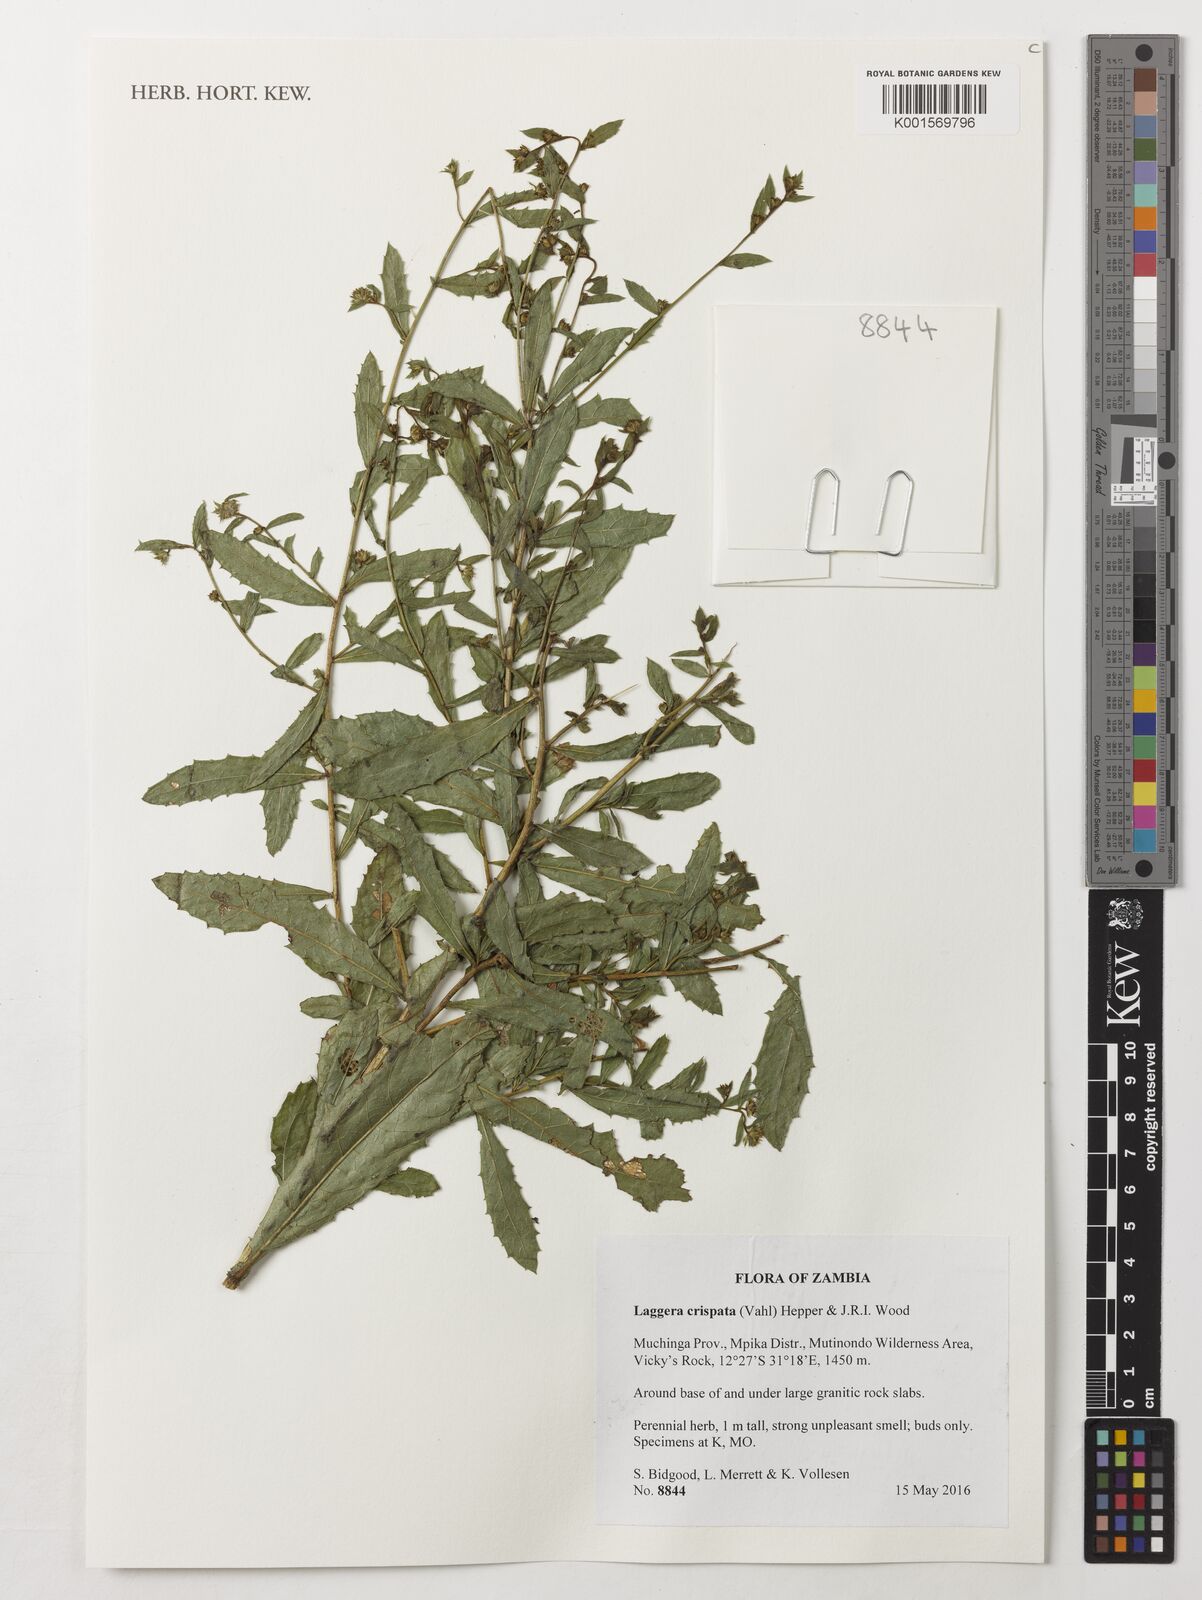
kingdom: Plantae
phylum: Tracheophyta
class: Magnoliopsida
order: Asterales
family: Asteraceae
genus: Laggera
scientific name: Laggera crispata
